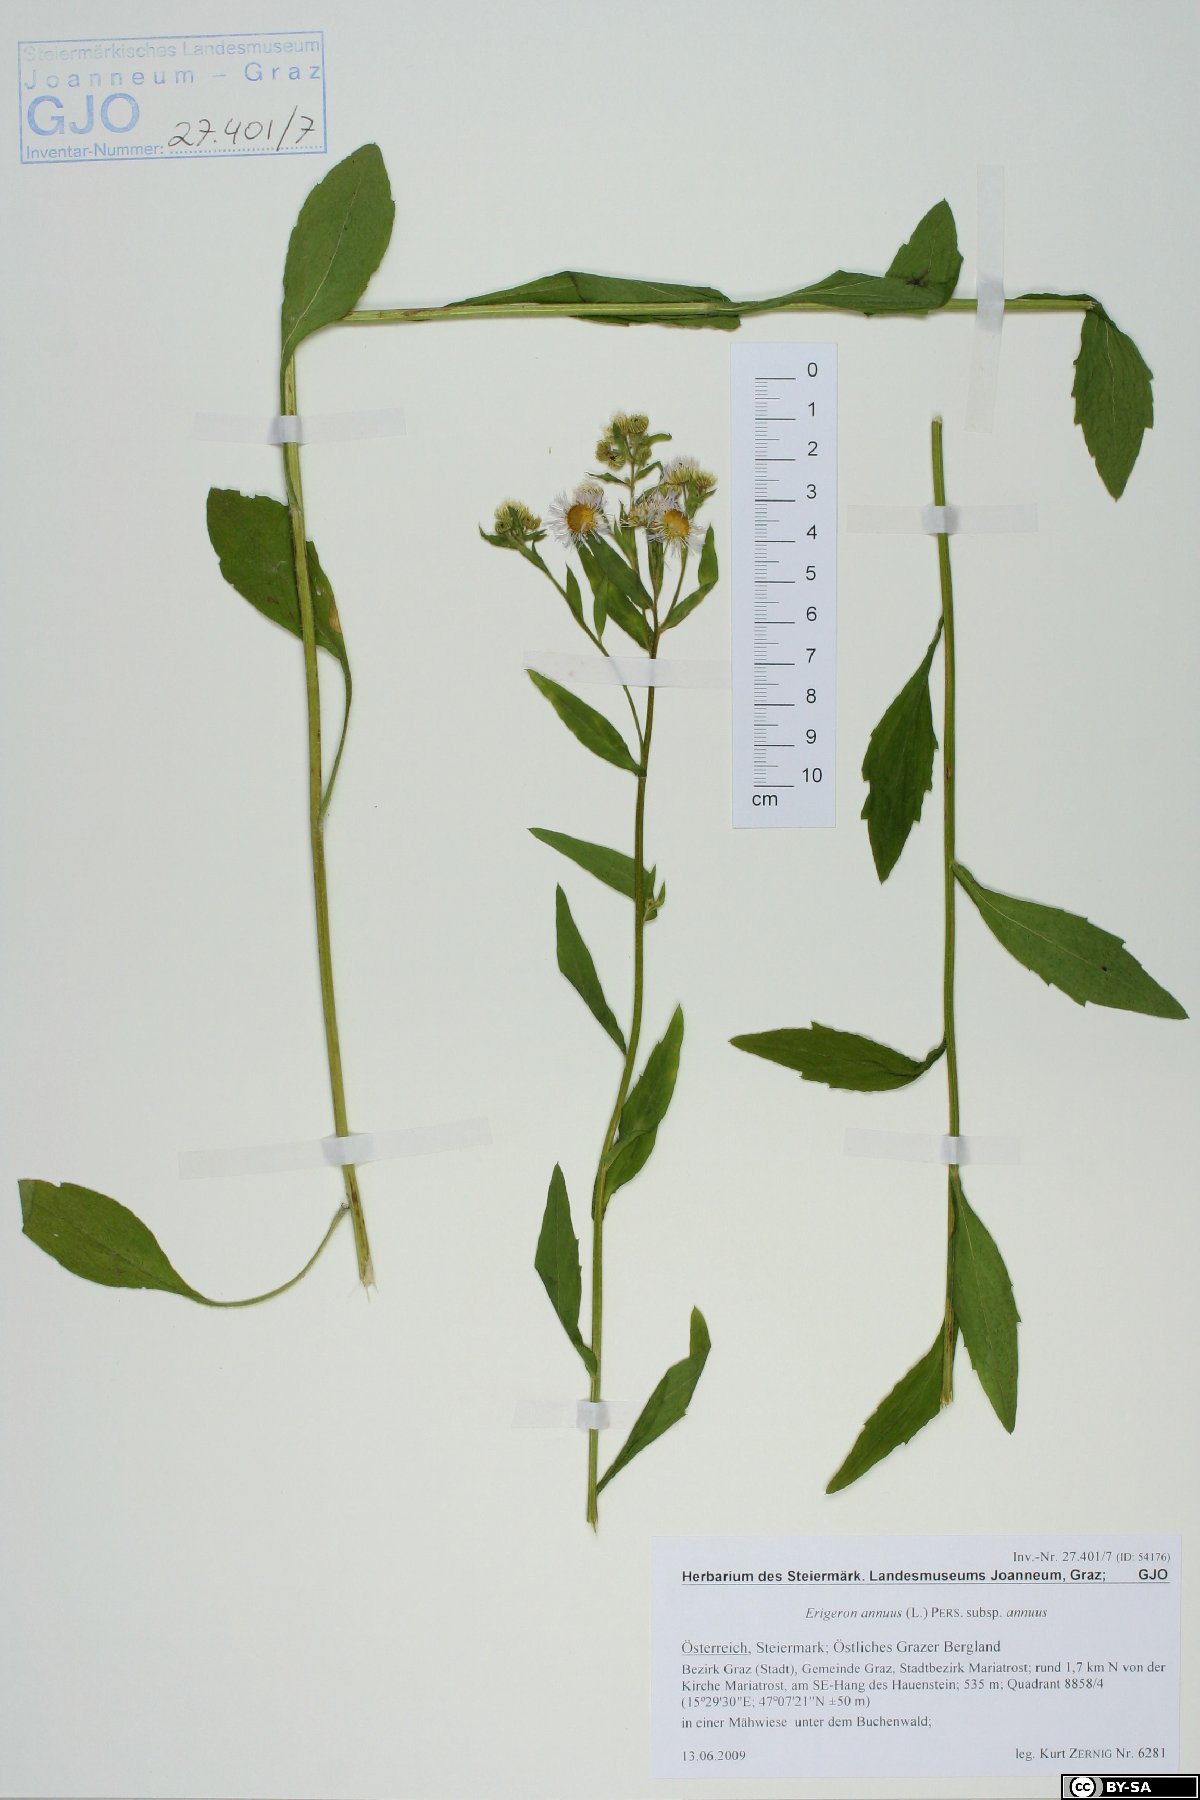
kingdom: Plantae
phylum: Tracheophyta
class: Magnoliopsida
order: Asterales
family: Asteraceae
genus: Erigeron
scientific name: Erigeron annuus
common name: Tall fleabane
